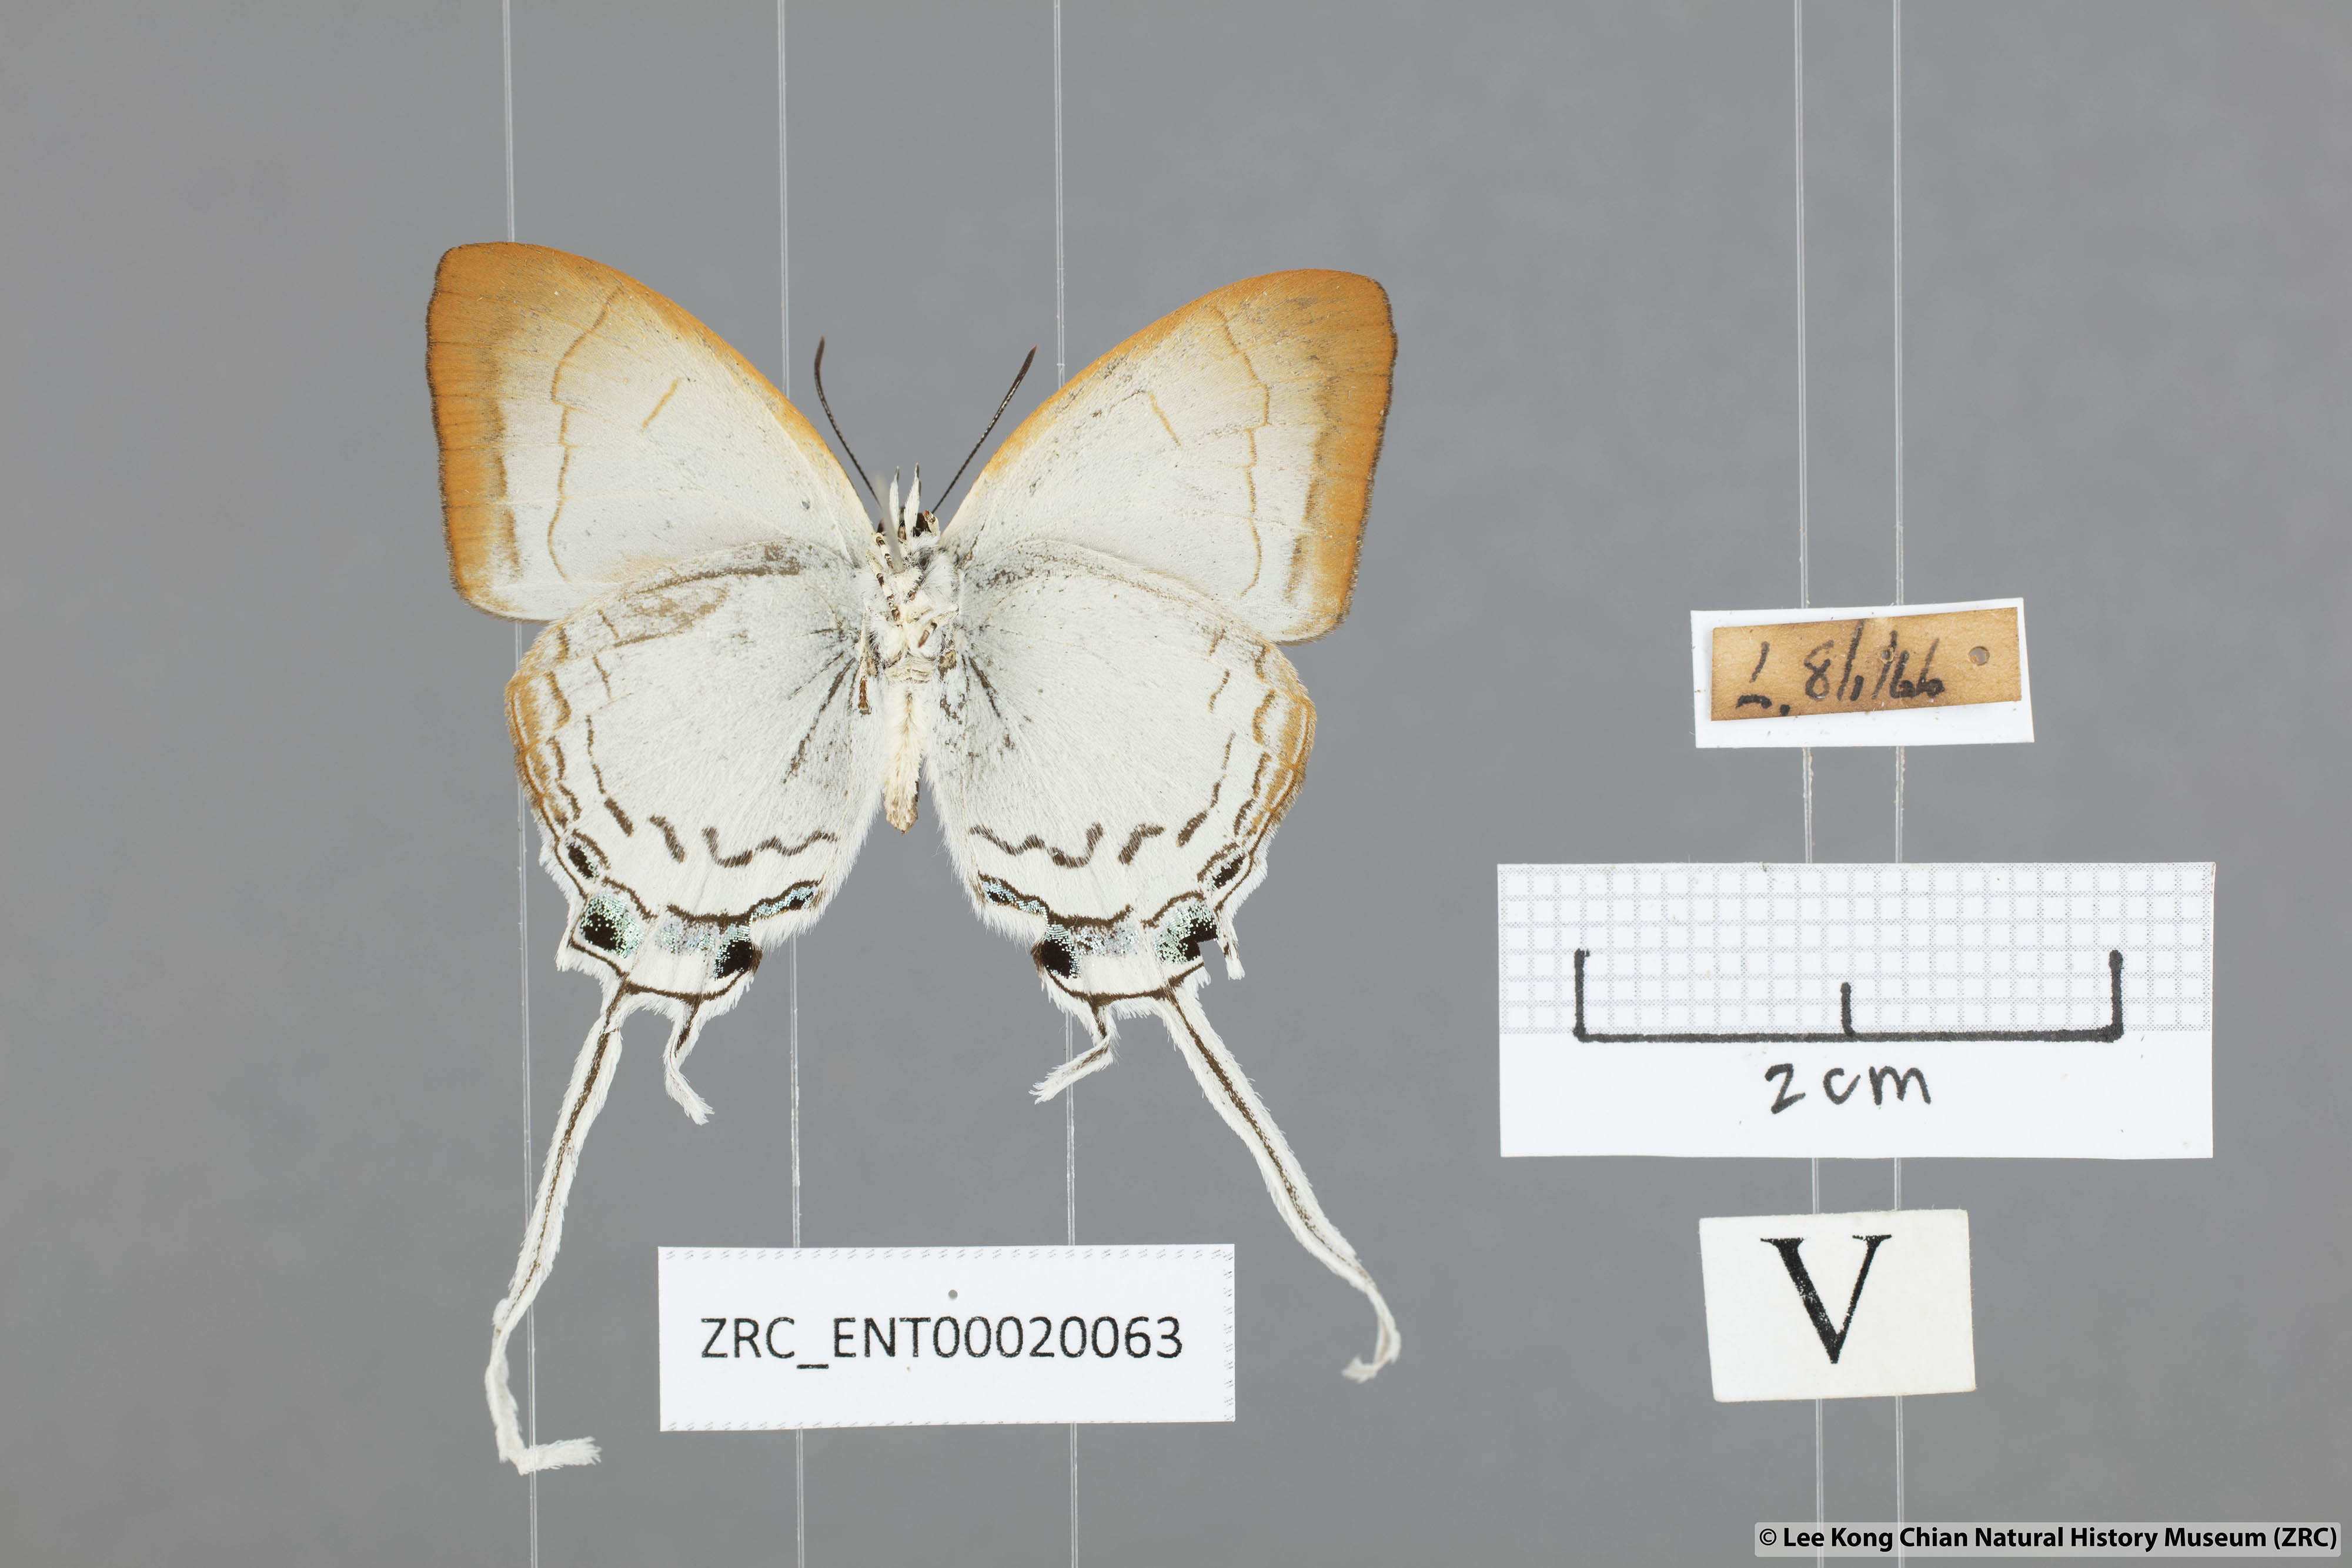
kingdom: Animalia
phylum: Arthropoda
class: Insecta
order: Lepidoptera
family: Lycaenidae
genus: Cheritra
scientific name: Cheritra freja
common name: Common imperial
